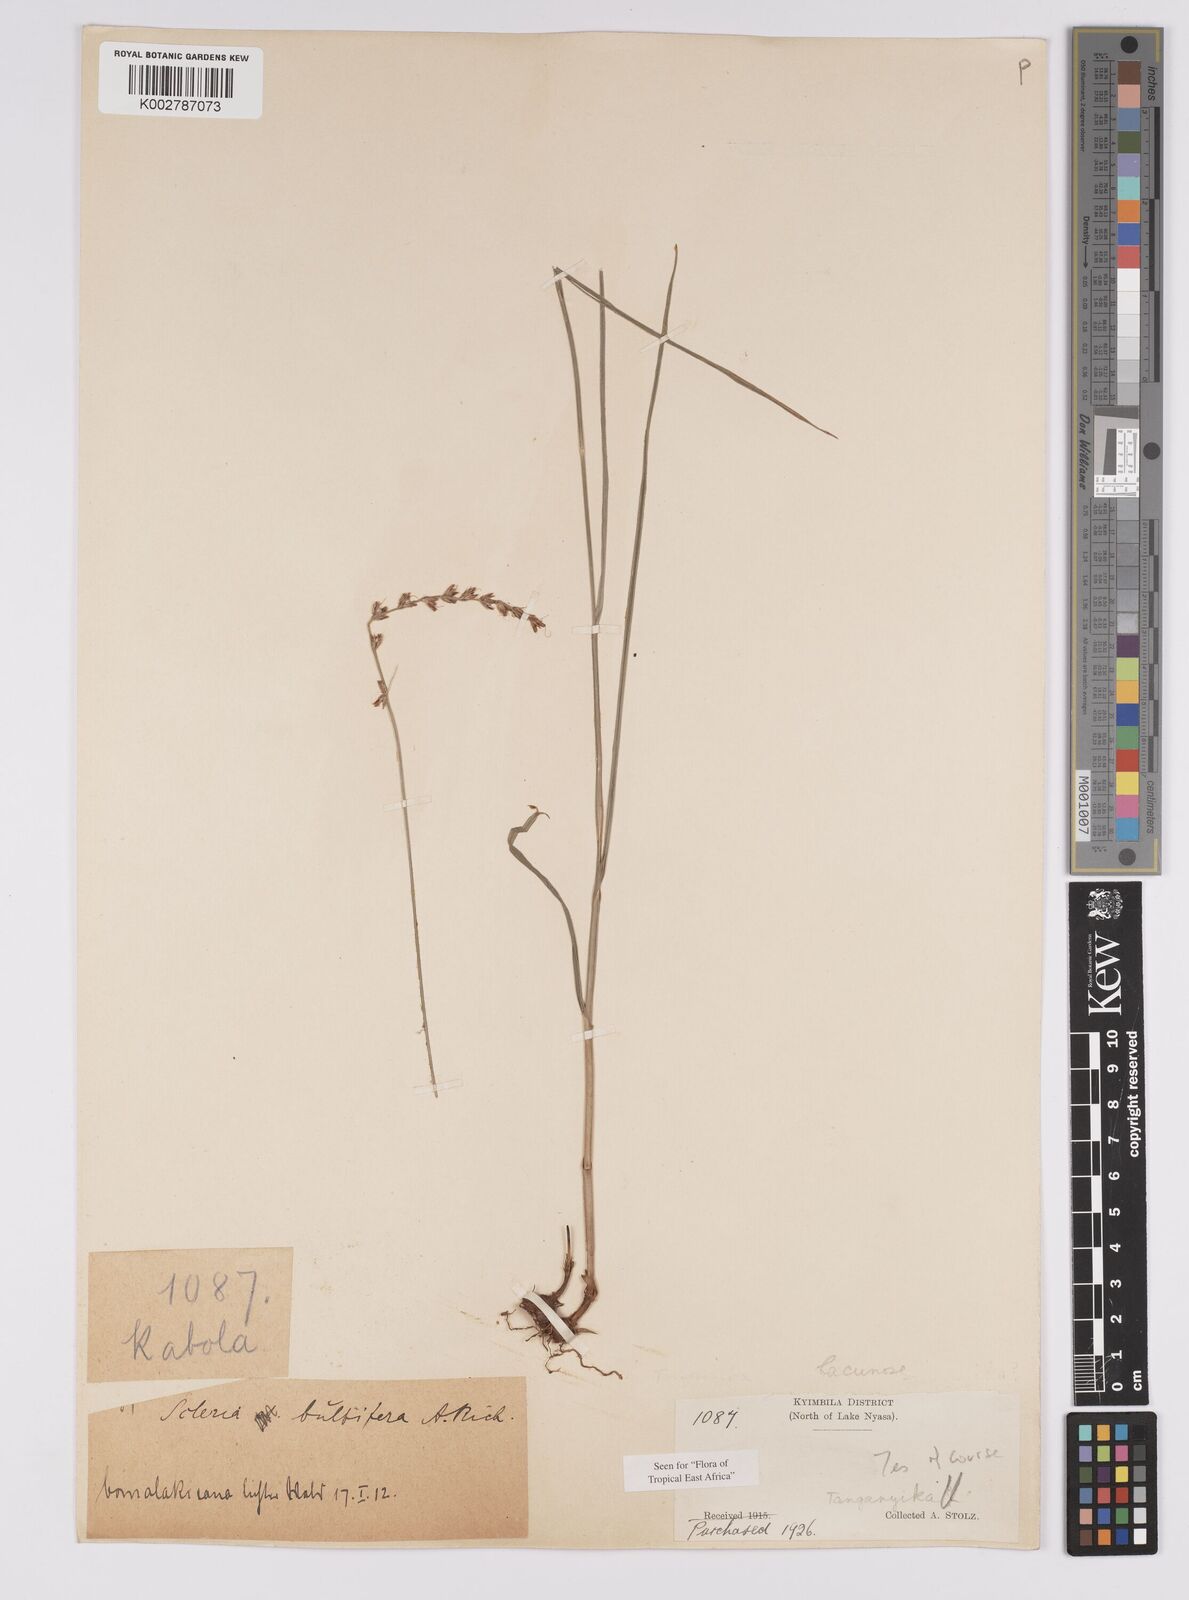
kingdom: Plantae
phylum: Tracheophyta
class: Liliopsida
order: Poales
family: Cyperaceae
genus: Scleria
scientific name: Scleria bulbifera
